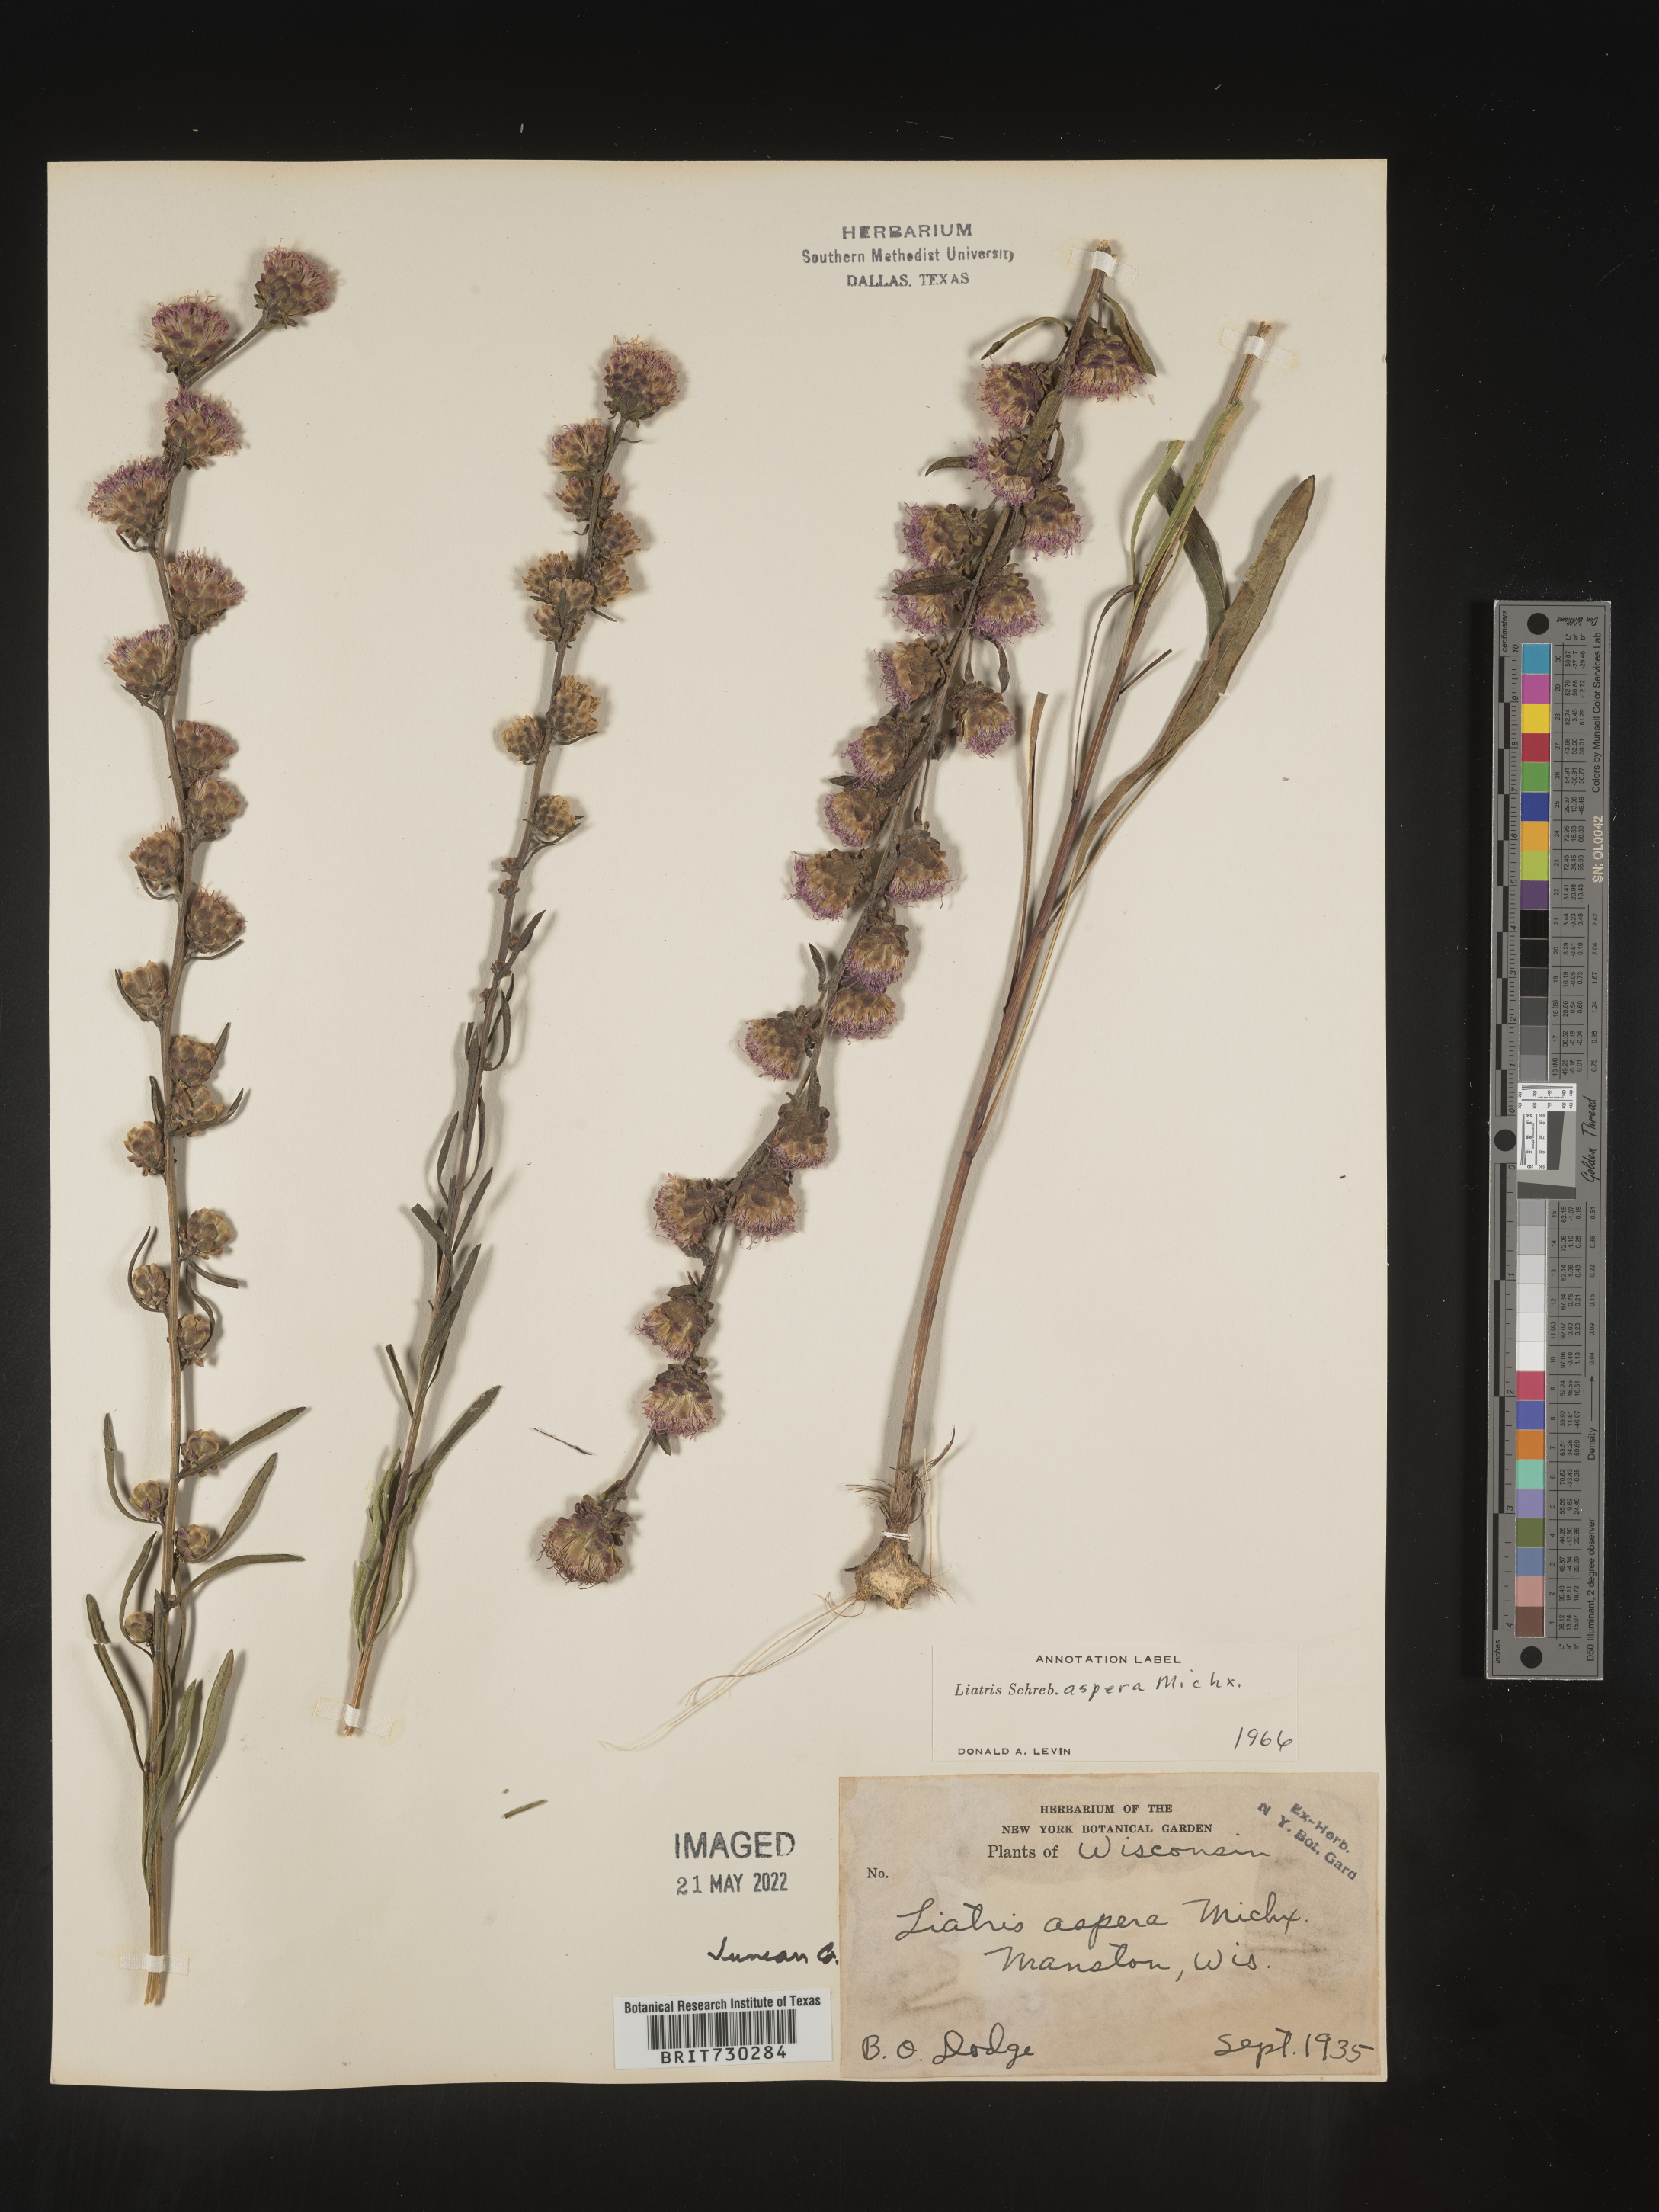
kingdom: Plantae
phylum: Tracheophyta
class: Magnoliopsida
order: Asterales
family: Asteraceae
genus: Liatris
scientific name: Liatris aspera
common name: Lacerate blazing-star
